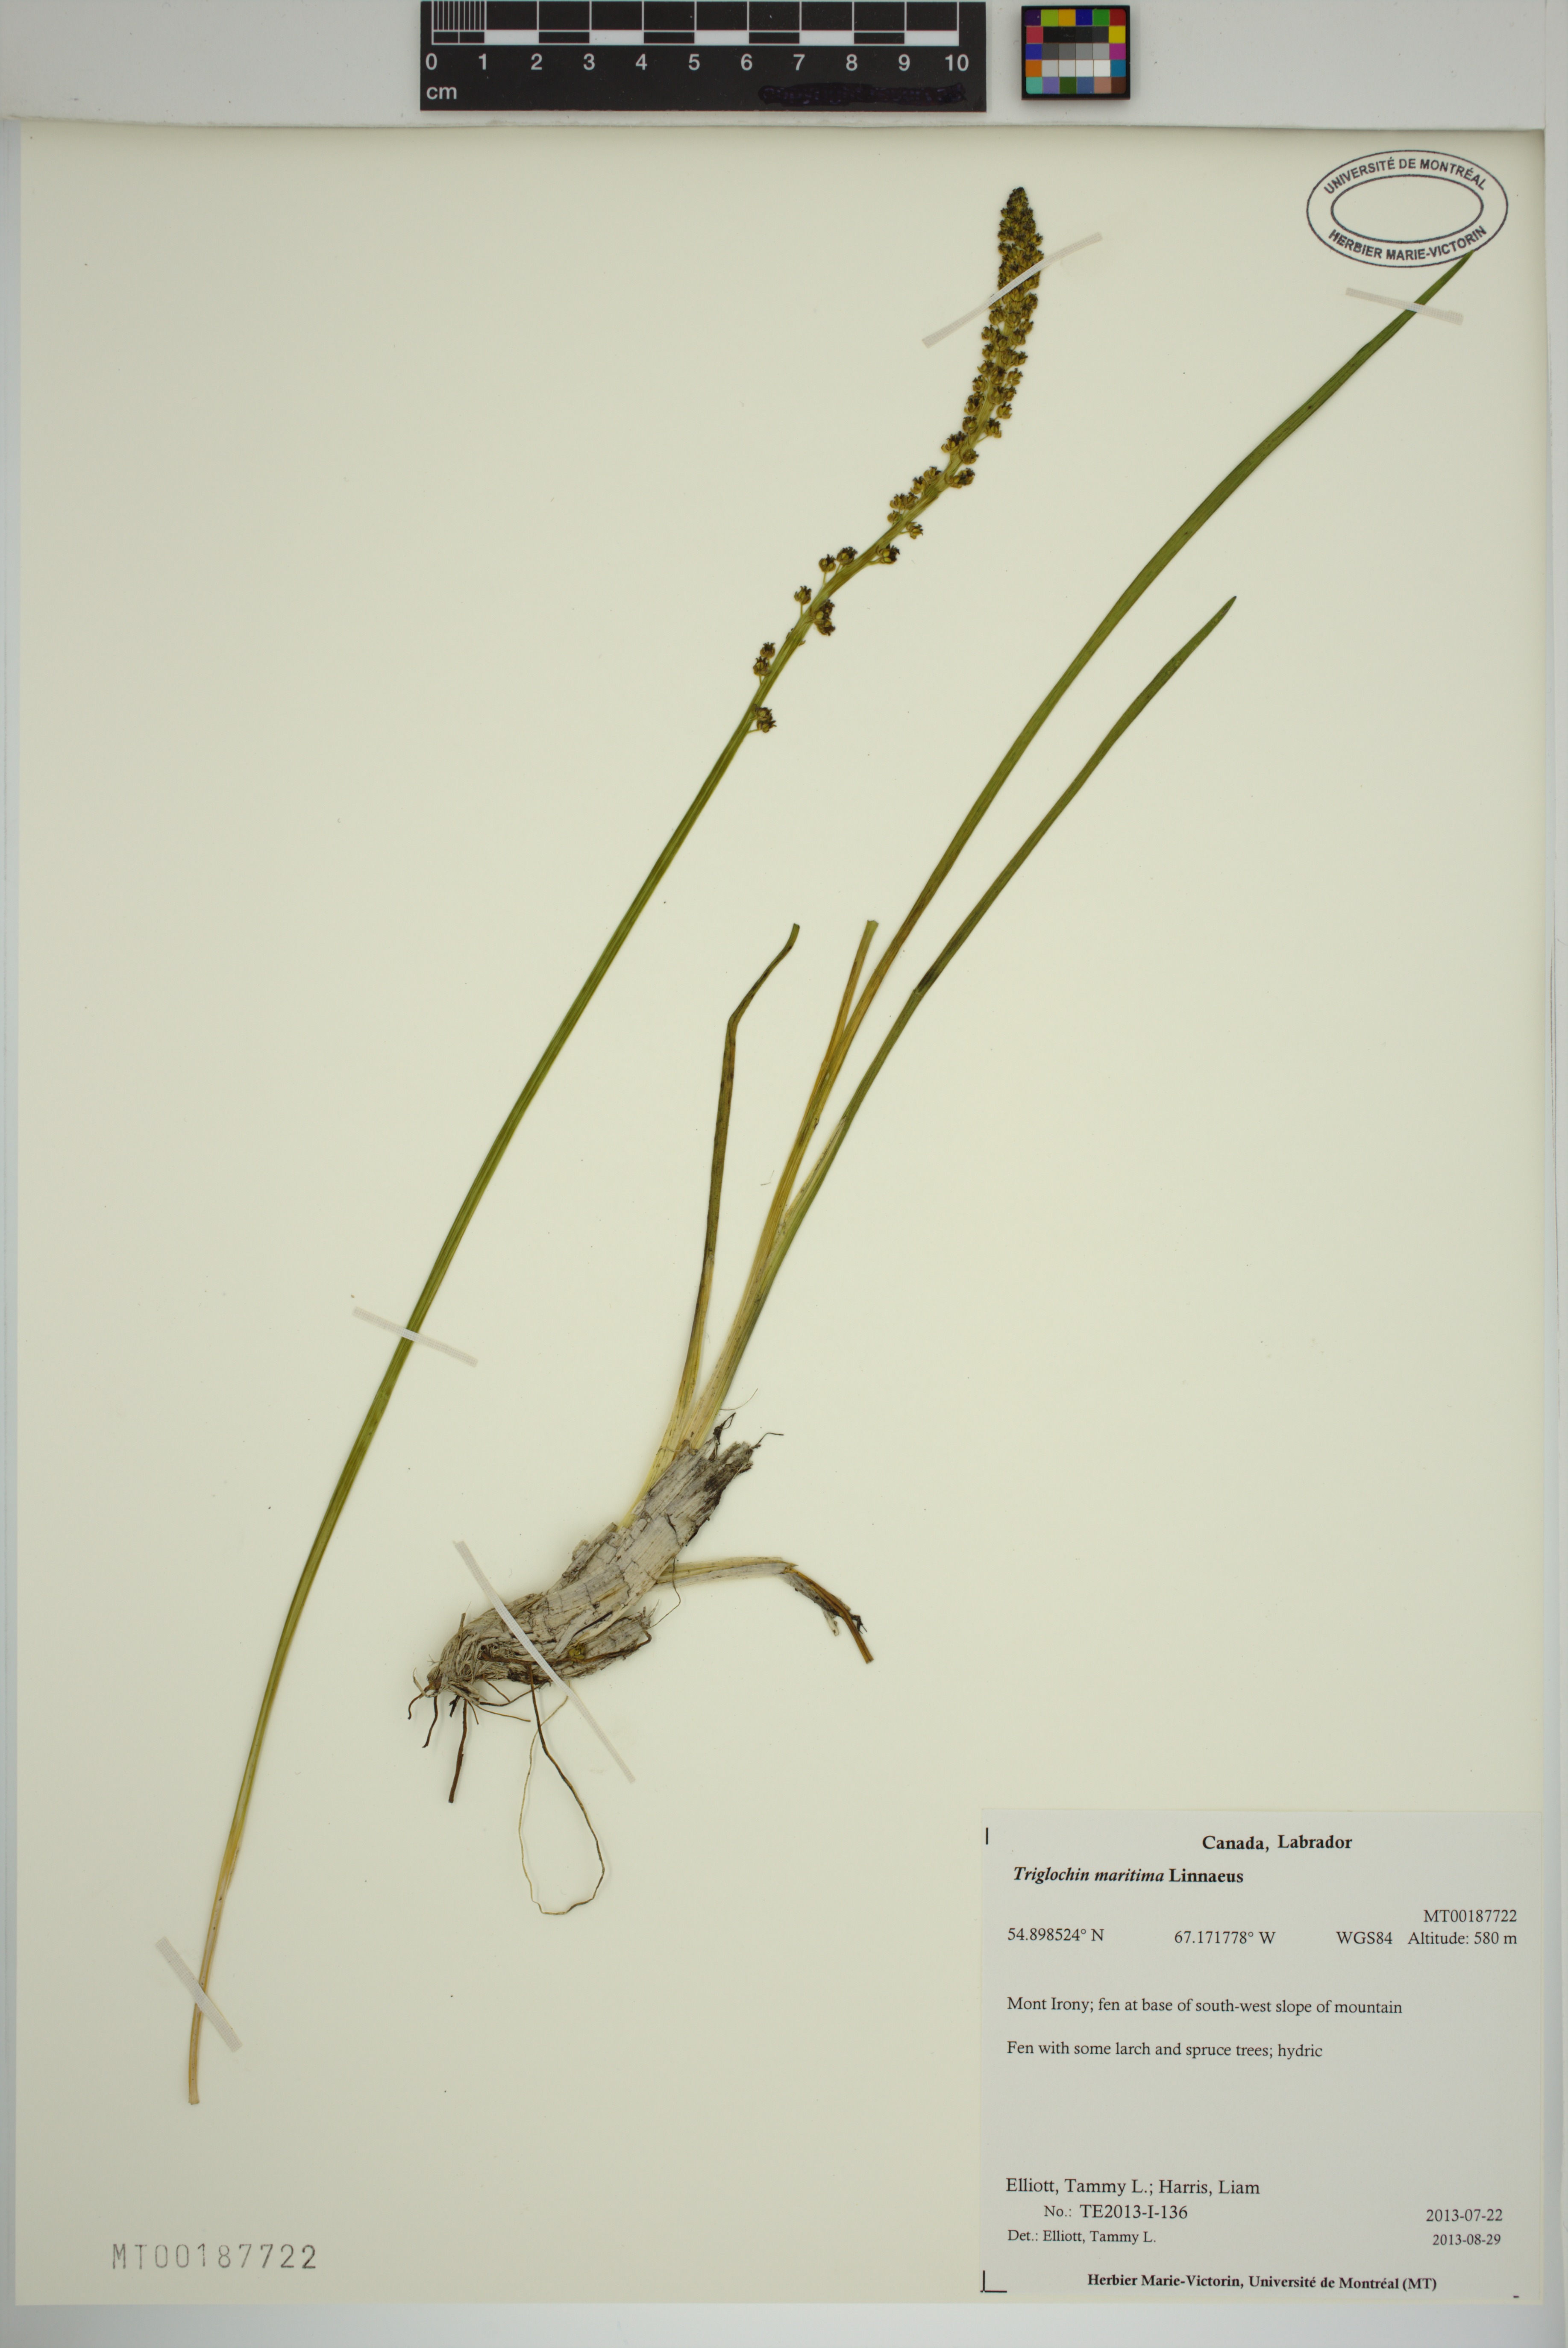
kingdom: Plantae
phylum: Tracheophyta
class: Liliopsida
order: Alismatales
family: Juncaginaceae
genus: Triglochin
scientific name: Triglochin maritima
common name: Sea arrowgrass
